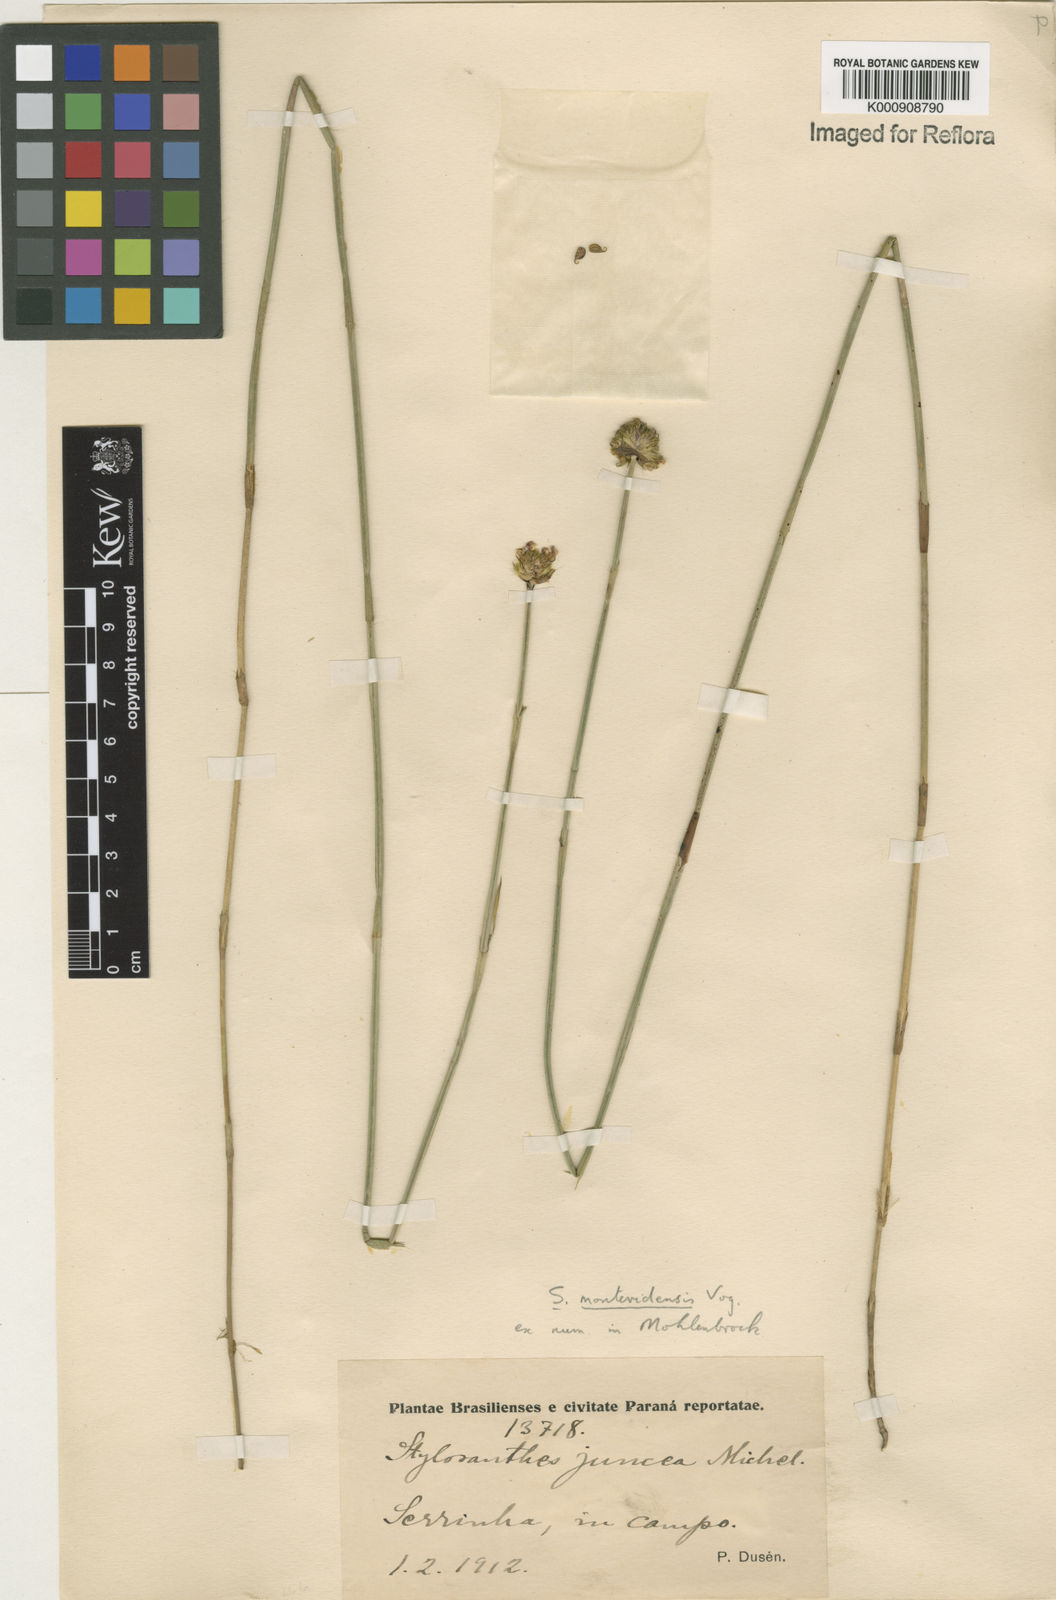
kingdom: Plantae
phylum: Tracheophyta
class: Magnoliopsida
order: Fabales
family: Fabaceae
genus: Stylosanthes
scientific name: Stylosanthes montevidensis
